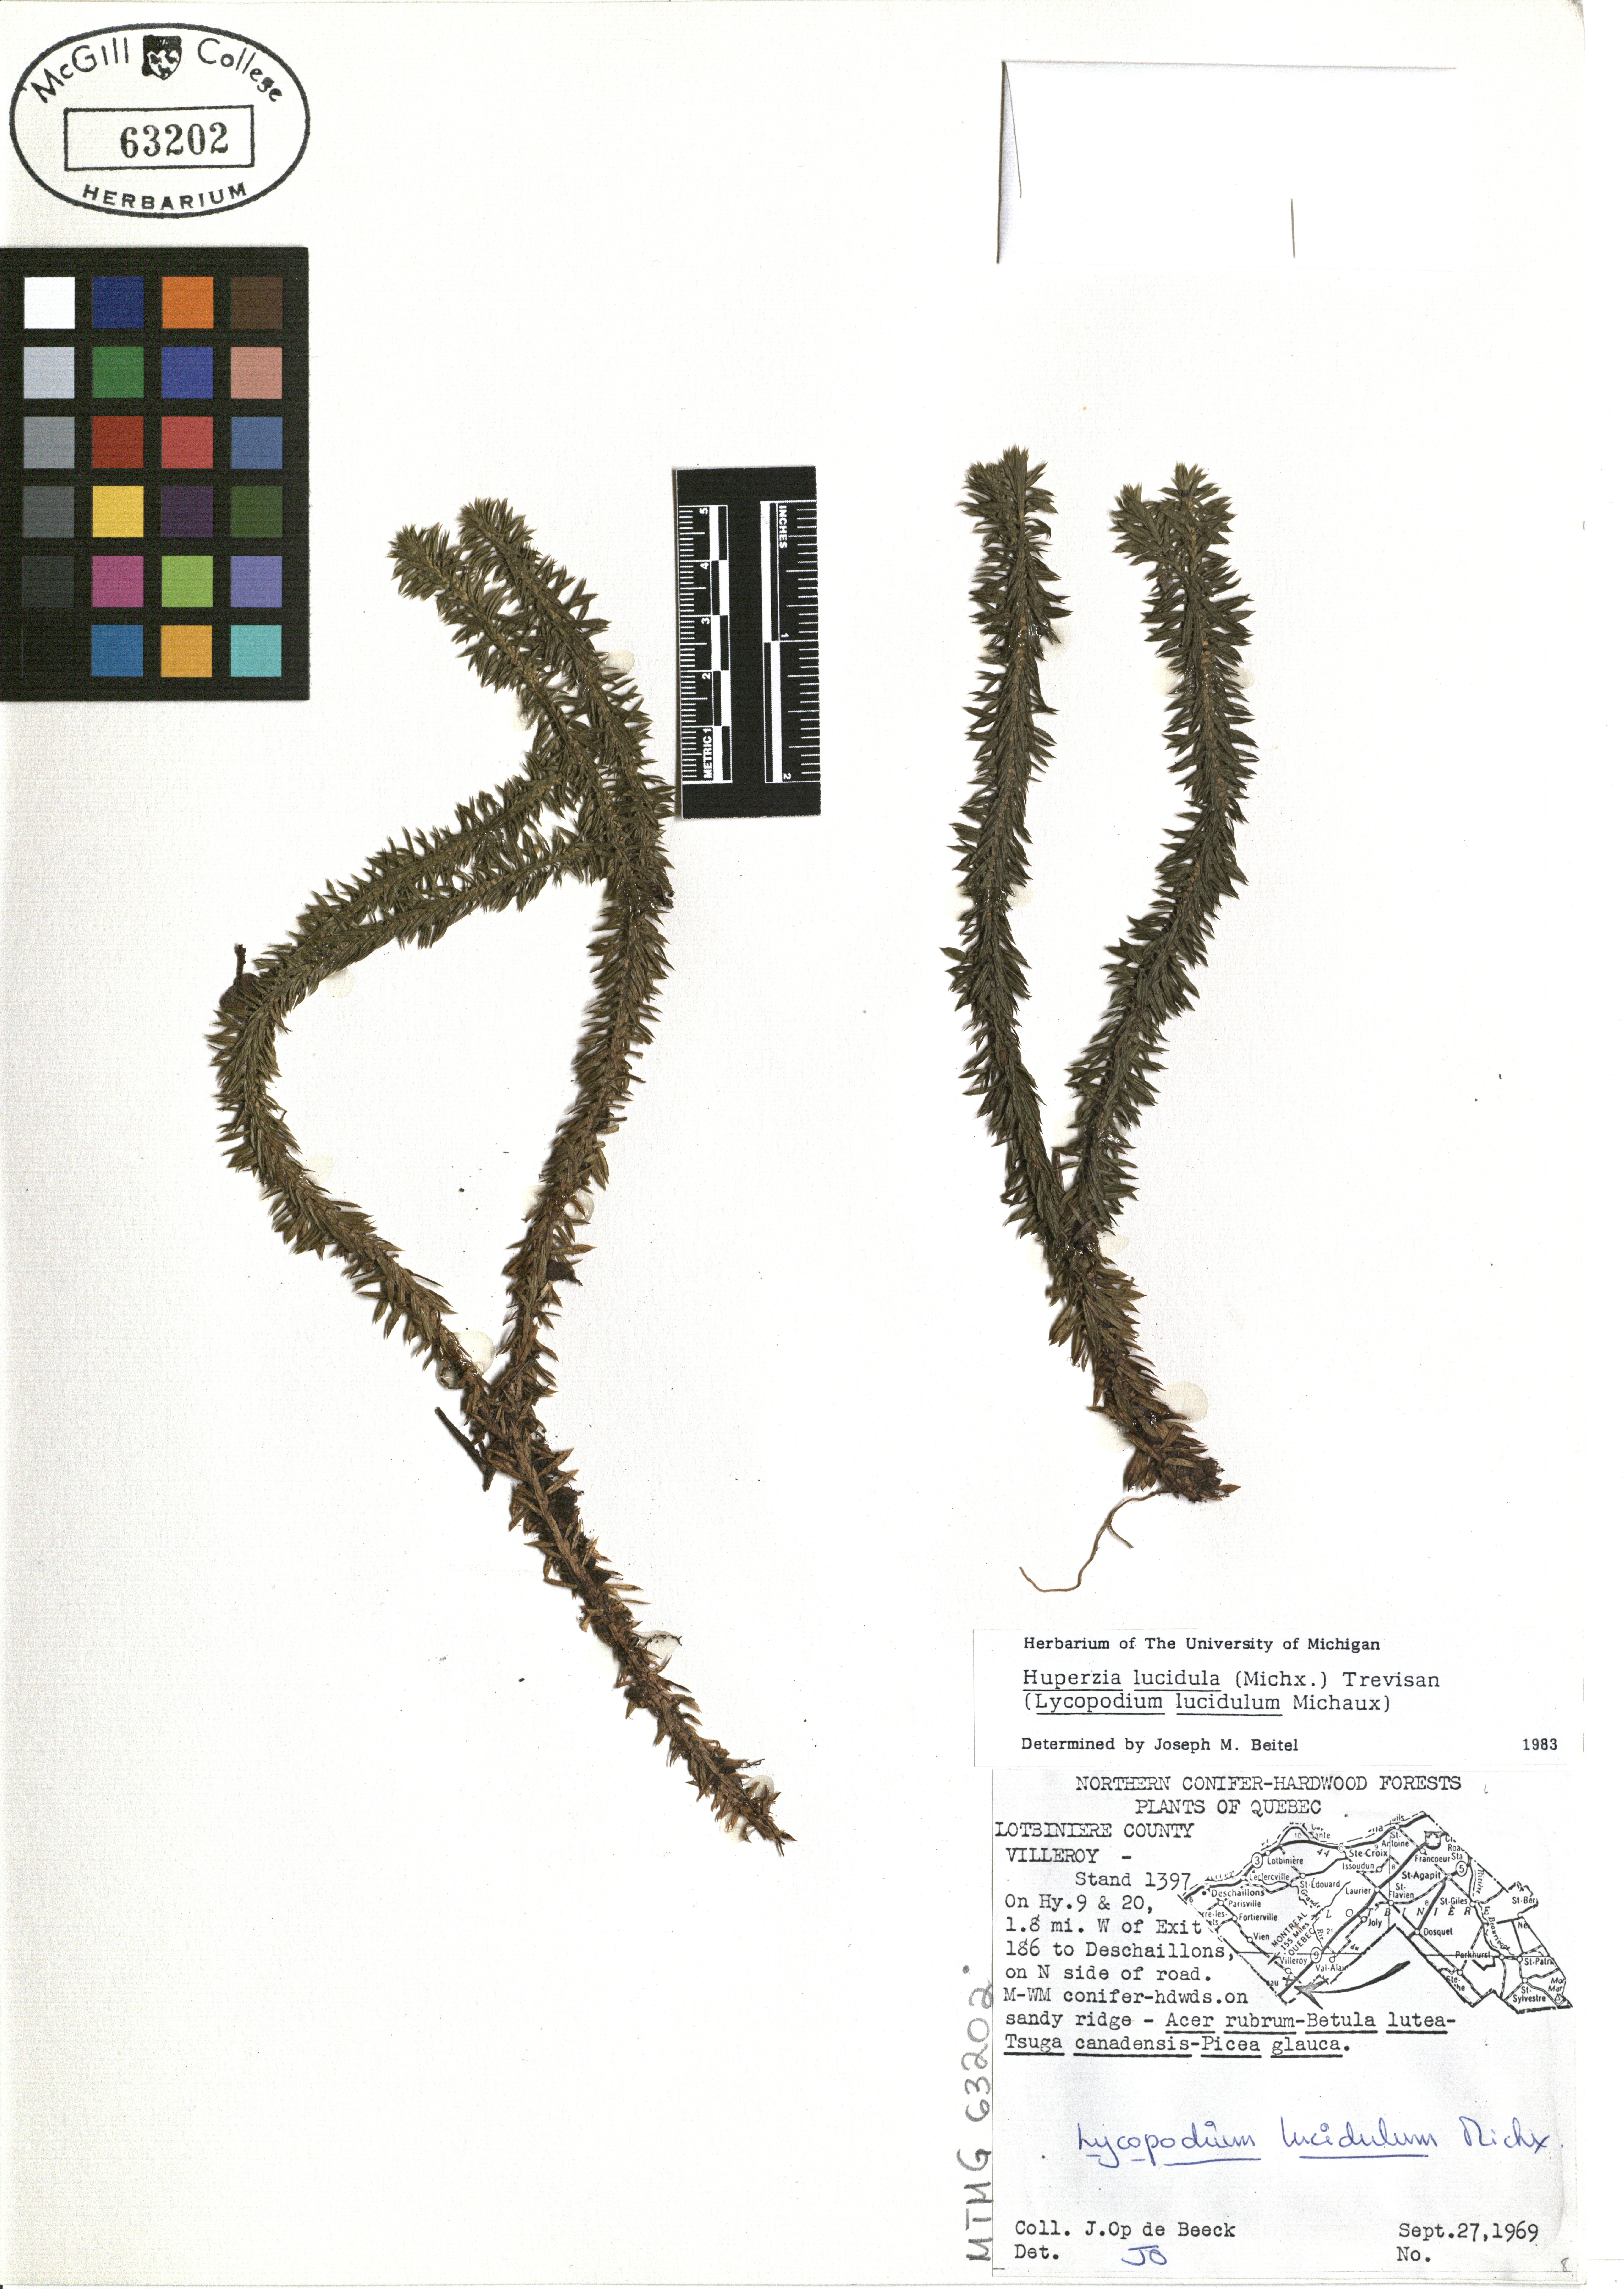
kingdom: Plantae
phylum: Tracheophyta
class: Lycopodiopsida
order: Lycopodiales
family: Lycopodiaceae
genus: Huperzia
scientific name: Huperzia lucidula
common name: Shining clubmoss
